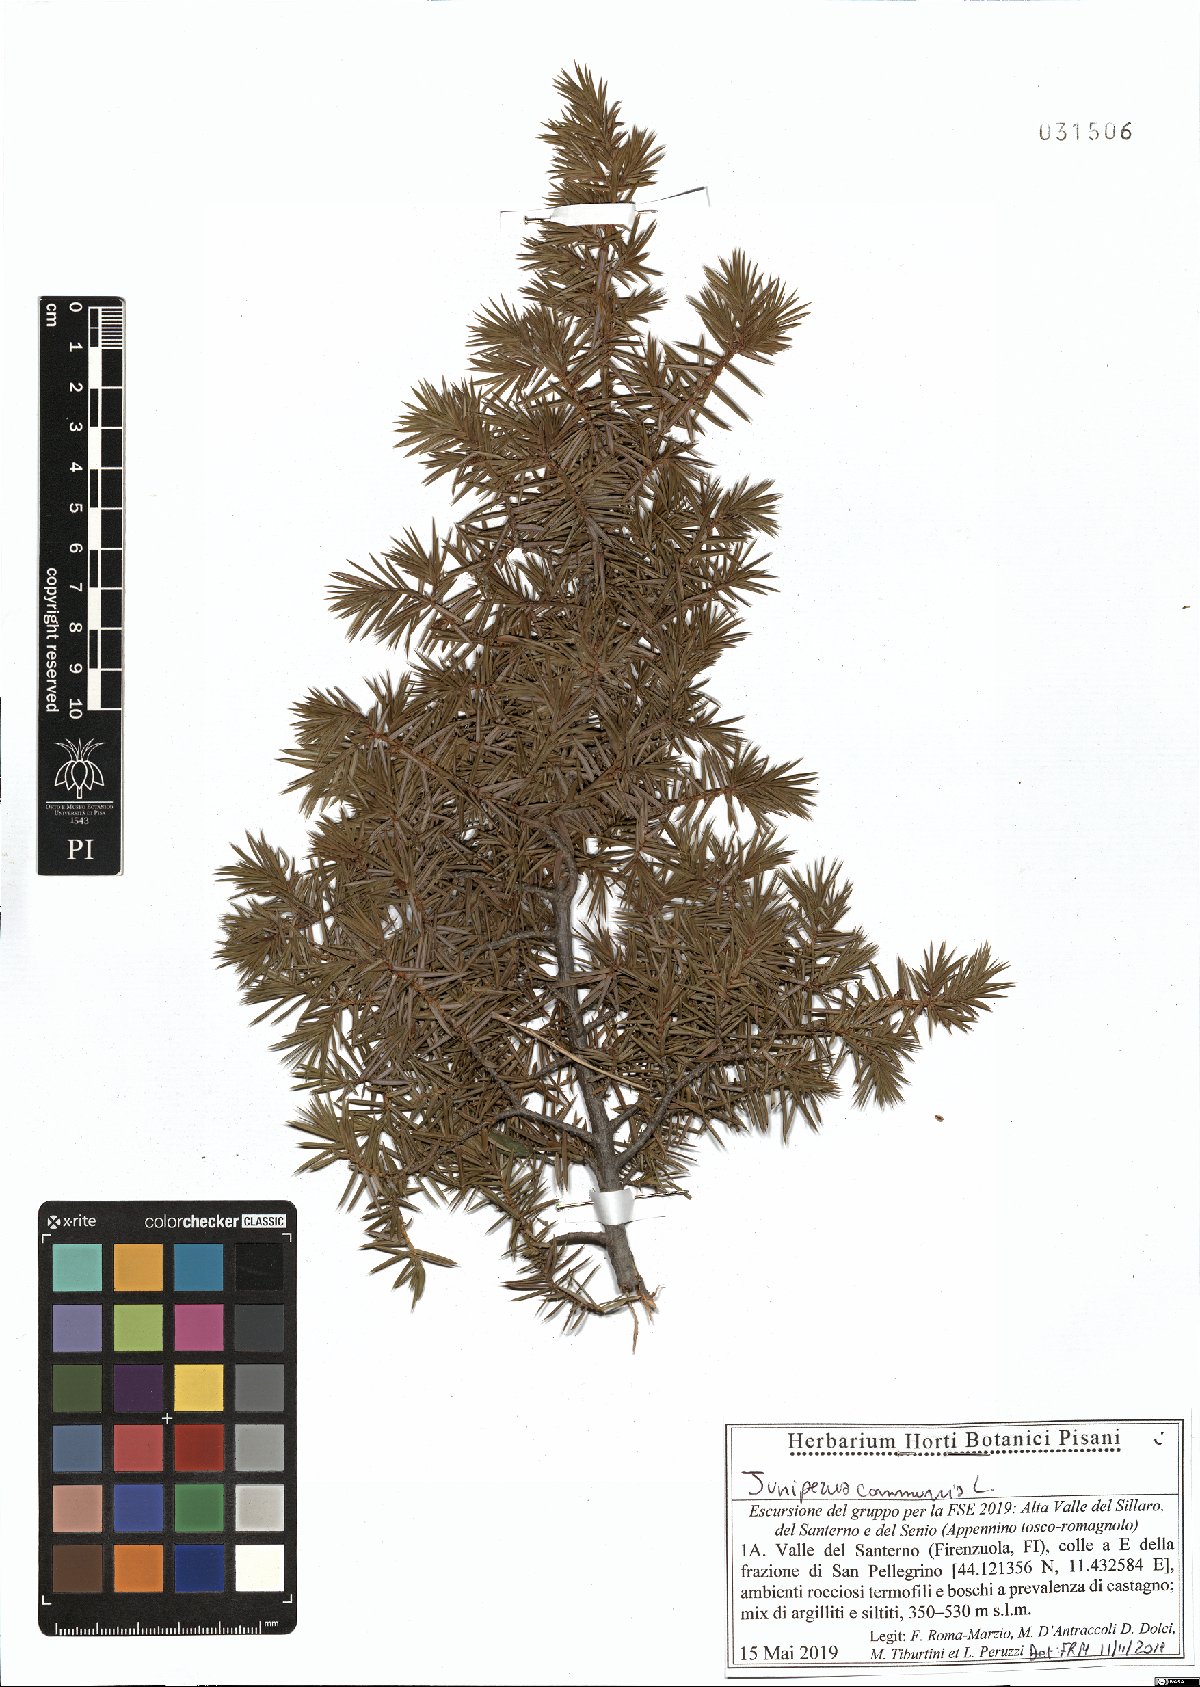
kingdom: Plantae
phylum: Tracheophyta
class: Pinopsida
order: Pinales
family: Cupressaceae
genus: Juniperus
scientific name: Juniperus communis
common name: Common juniper
